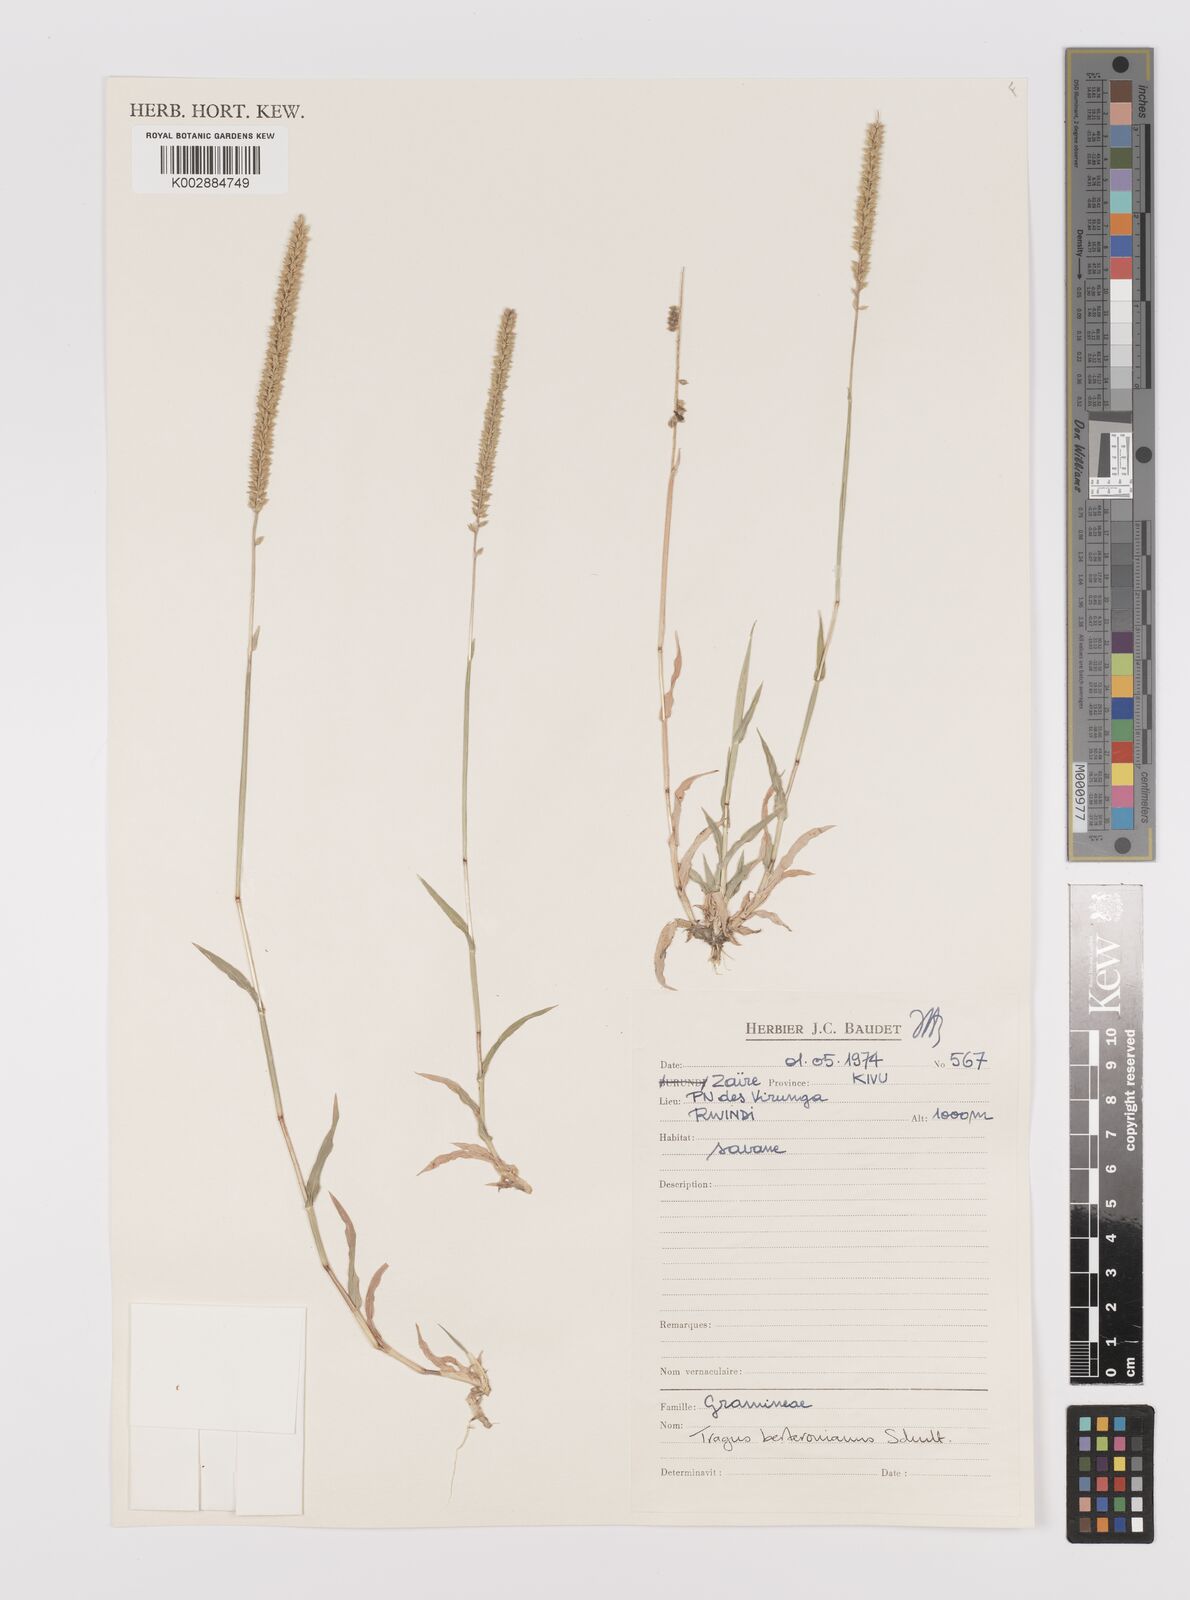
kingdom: Plantae
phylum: Tracheophyta
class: Liliopsida
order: Poales
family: Poaceae
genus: Tragus
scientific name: Tragus berteronianus
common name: African bur-grass
